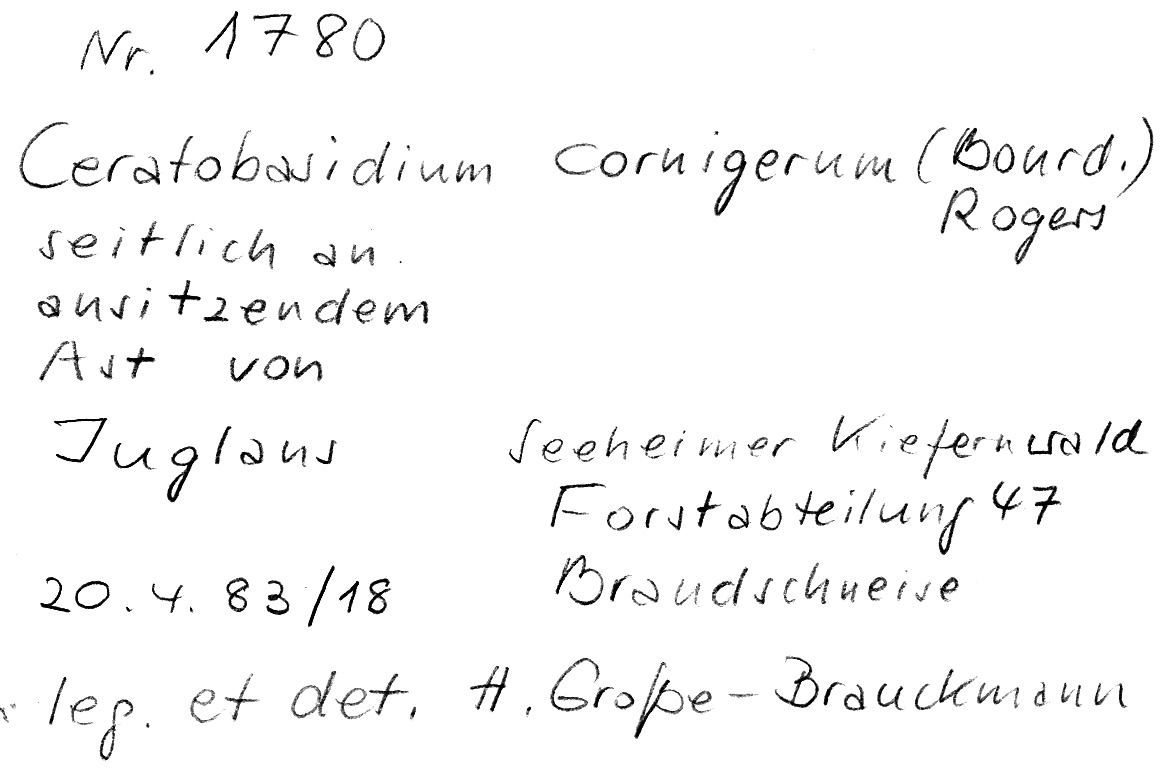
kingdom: Fungi
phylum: Basidiomycota
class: Agaricomycetes
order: Cantharellales
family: Ceratobasidiaceae
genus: Ceratobasidium
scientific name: Ceratobasidium cornigerum
